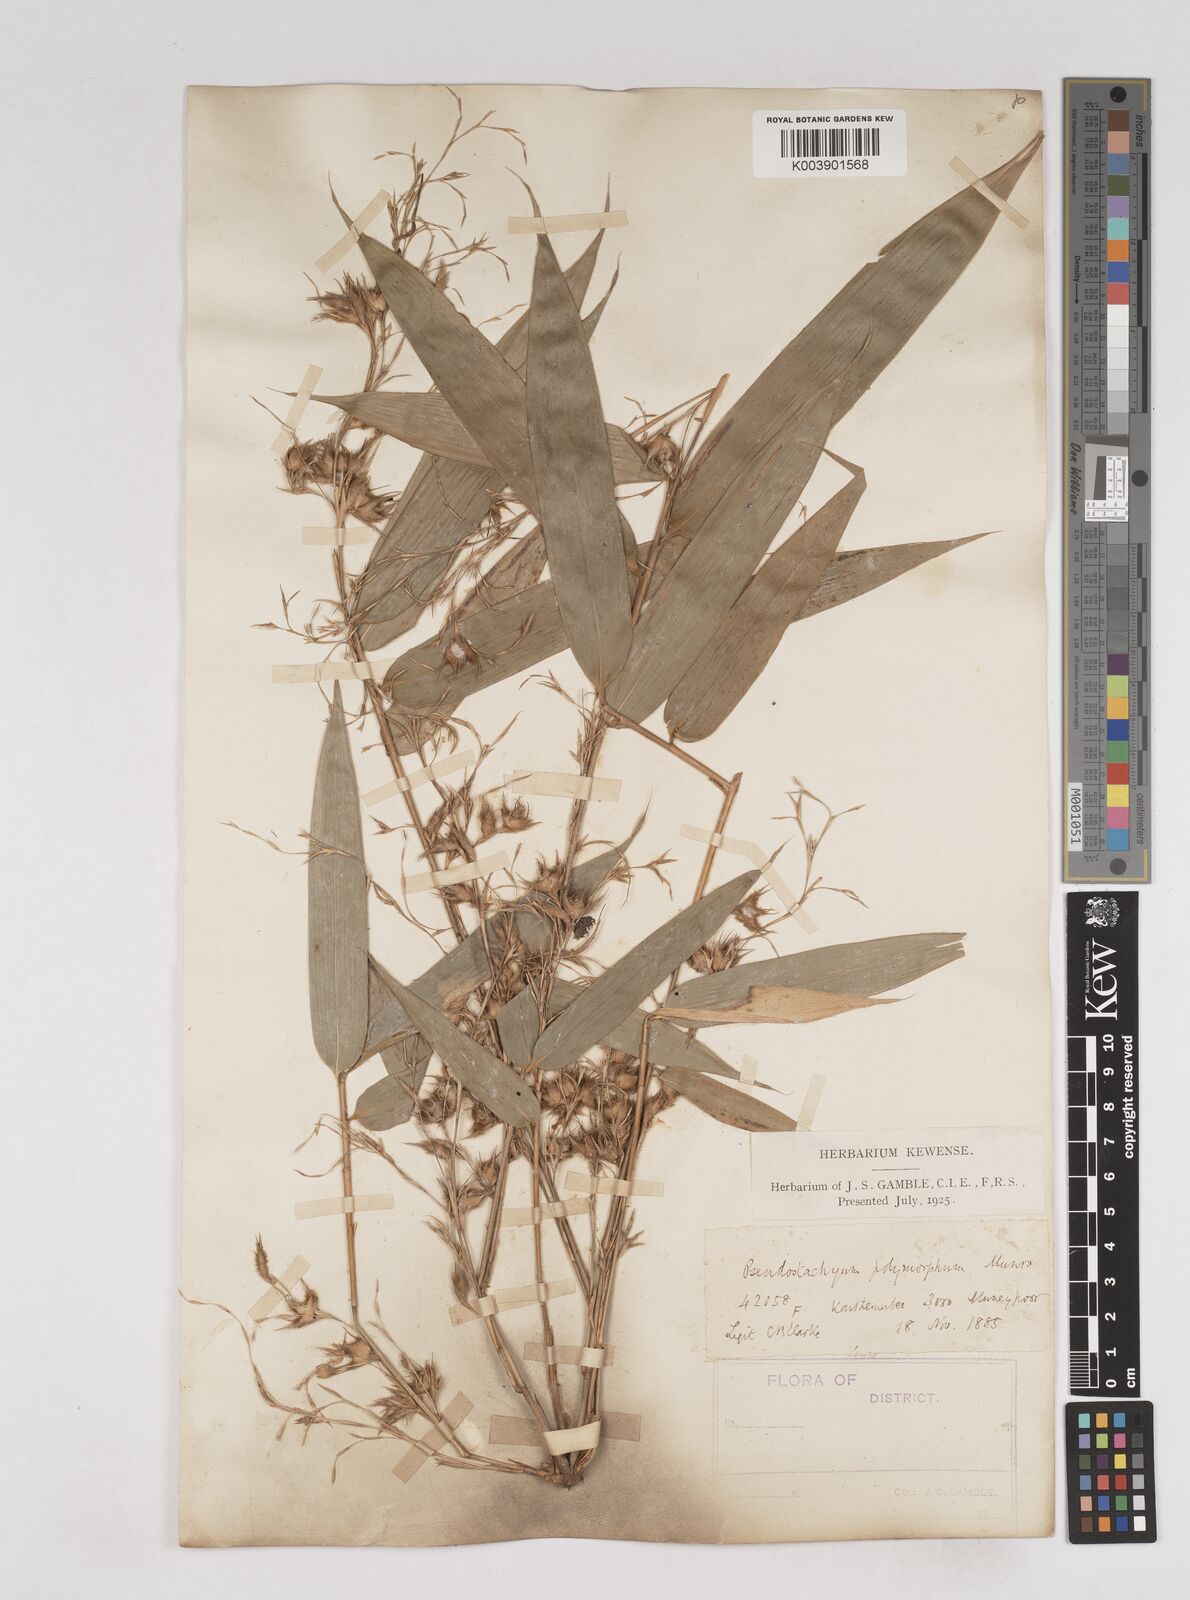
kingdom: Plantae
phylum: Tracheophyta
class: Liliopsida
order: Poales
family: Poaceae
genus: Pseudostachyum
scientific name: Pseudostachyum polymorphum
